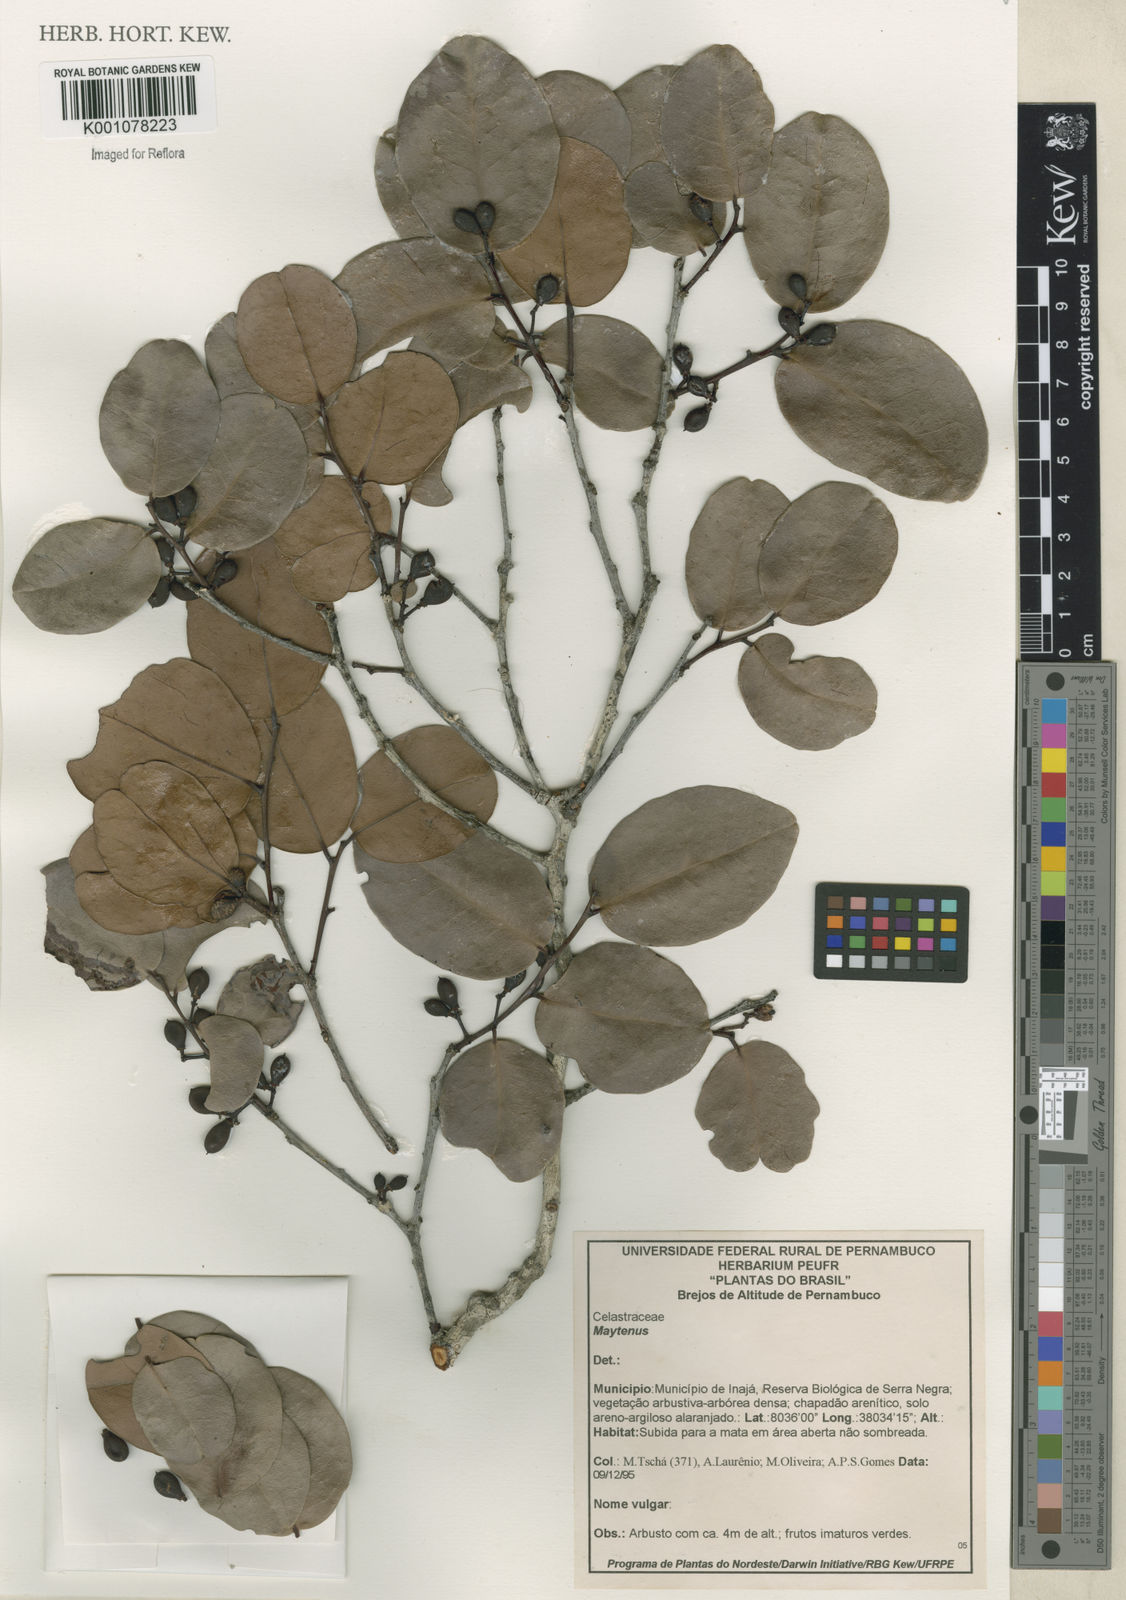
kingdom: Plantae
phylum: Tracheophyta
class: Magnoliopsida
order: Celastrales
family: Celastraceae
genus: Maytenus
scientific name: Maytenus
